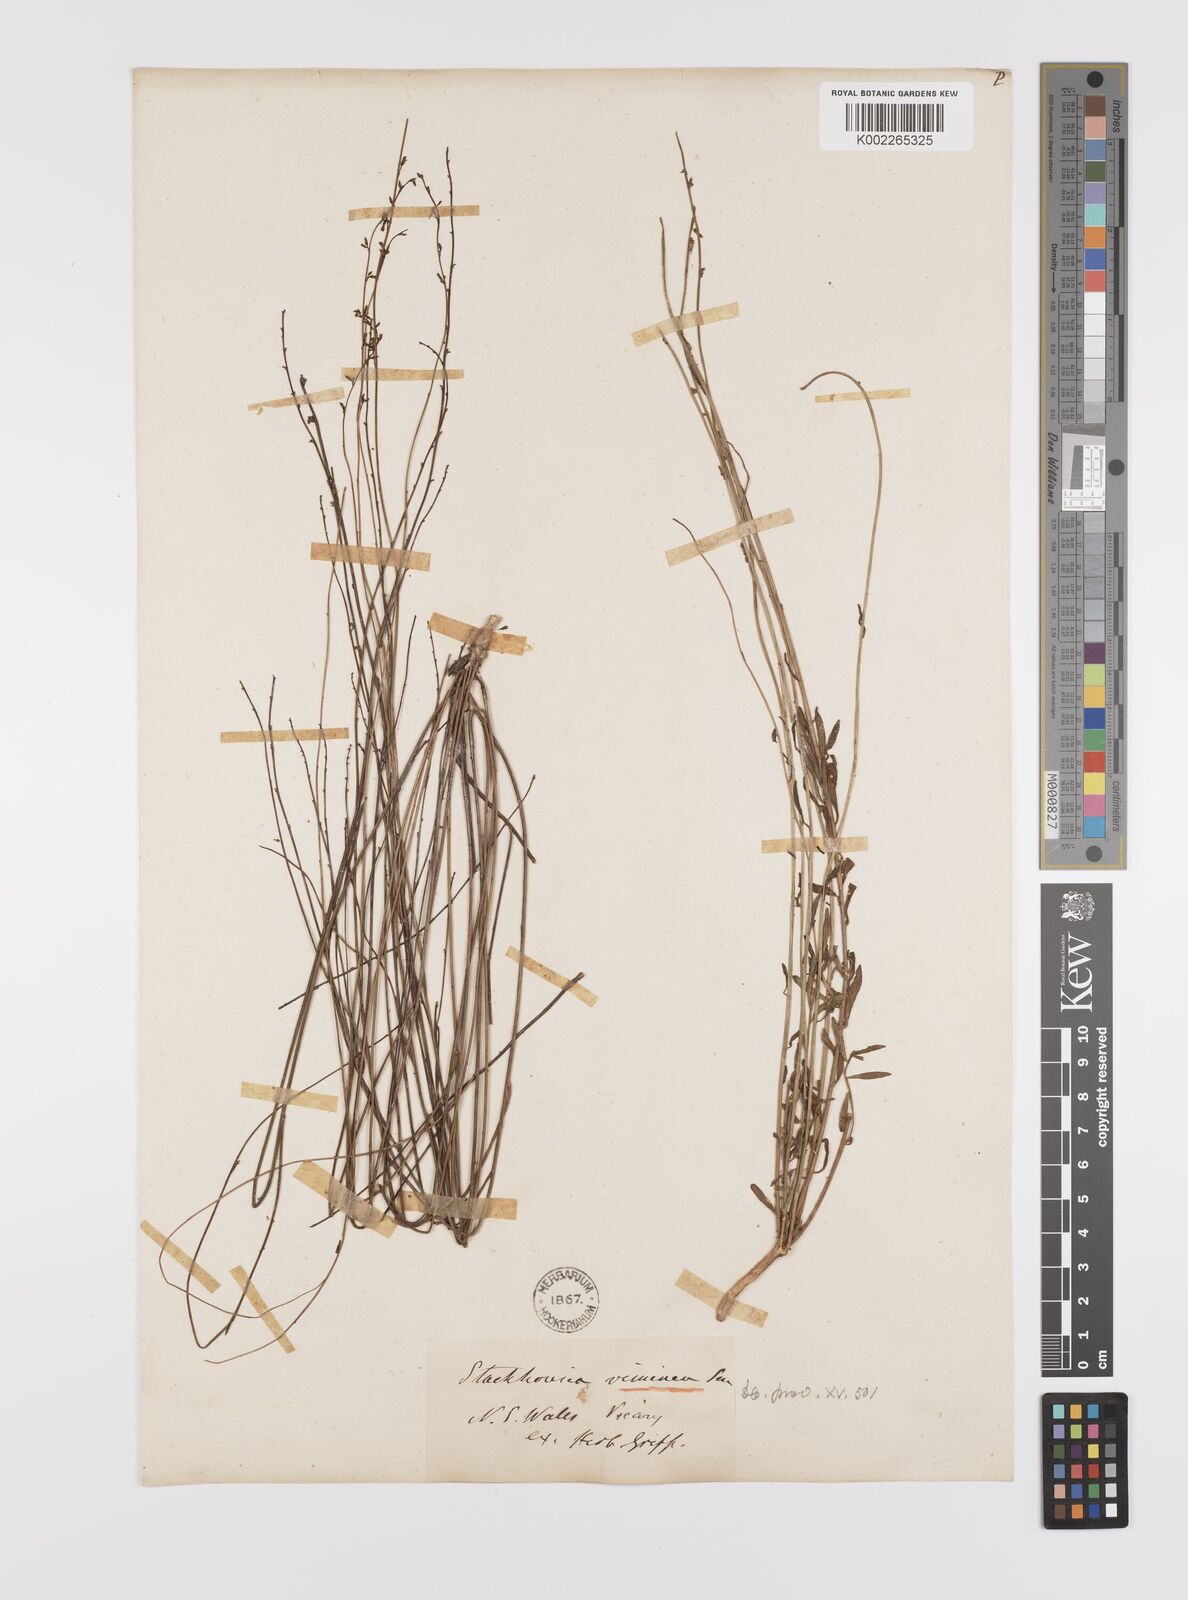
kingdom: Plantae
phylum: Tracheophyta
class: Magnoliopsida
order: Celastrales
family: Celastraceae
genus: Stackhousia
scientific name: Stackhousia viminea
